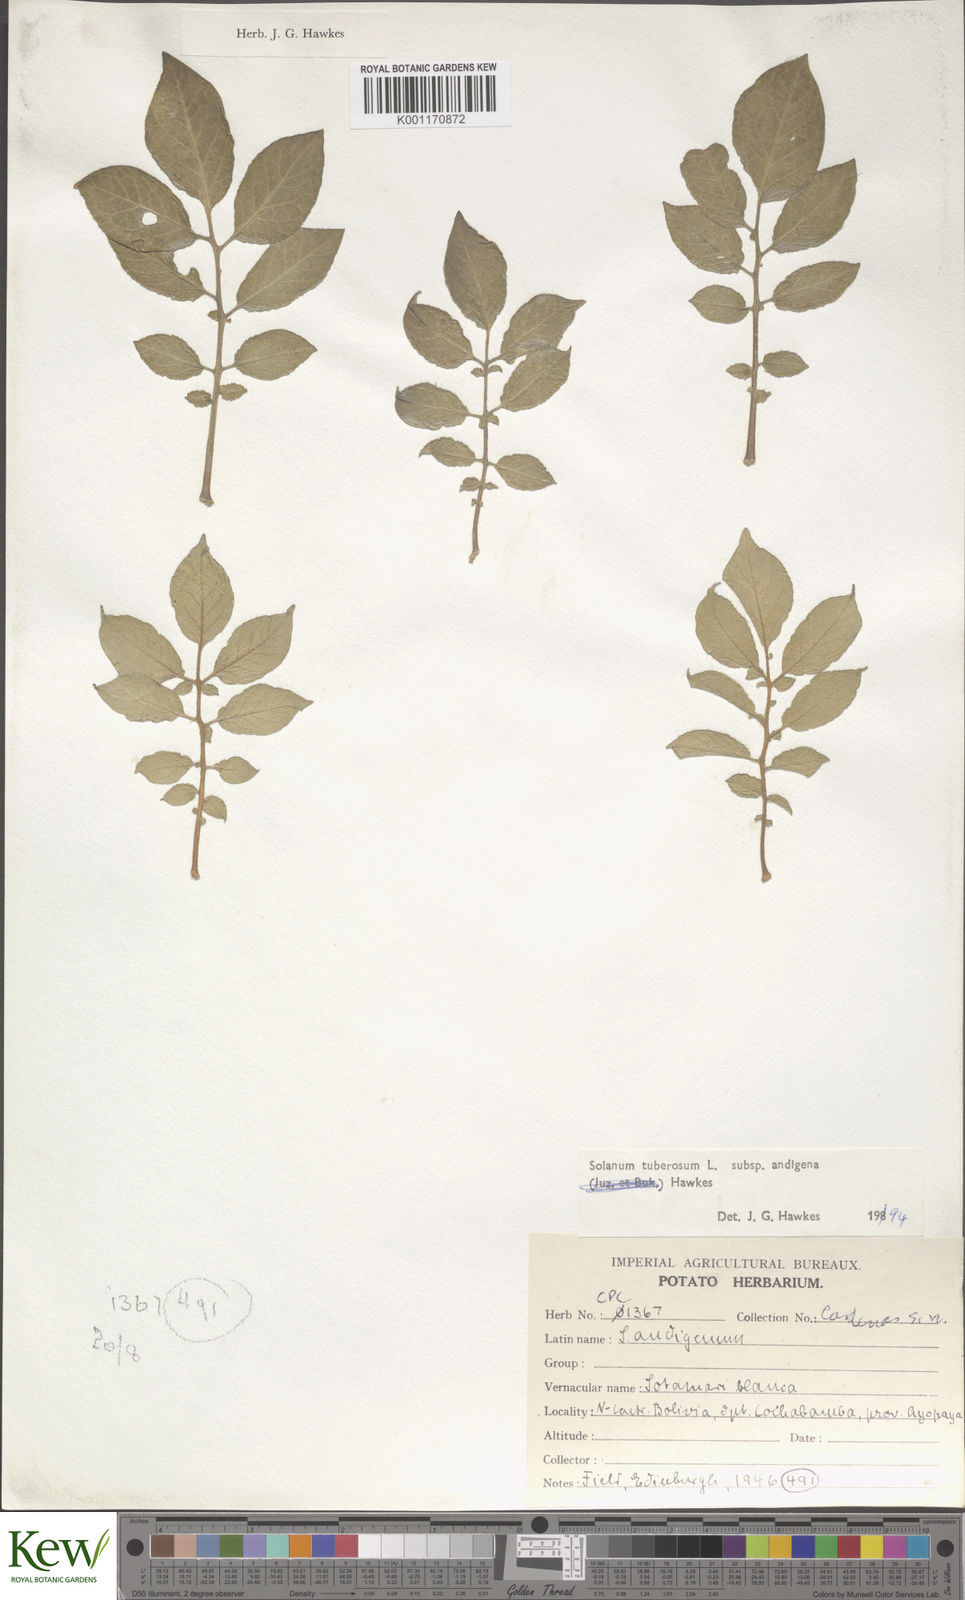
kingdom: Plantae
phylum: Tracheophyta
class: Magnoliopsida
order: Solanales
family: Solanaceae
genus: Solanum
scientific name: Solanum tuberosum
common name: Potato
